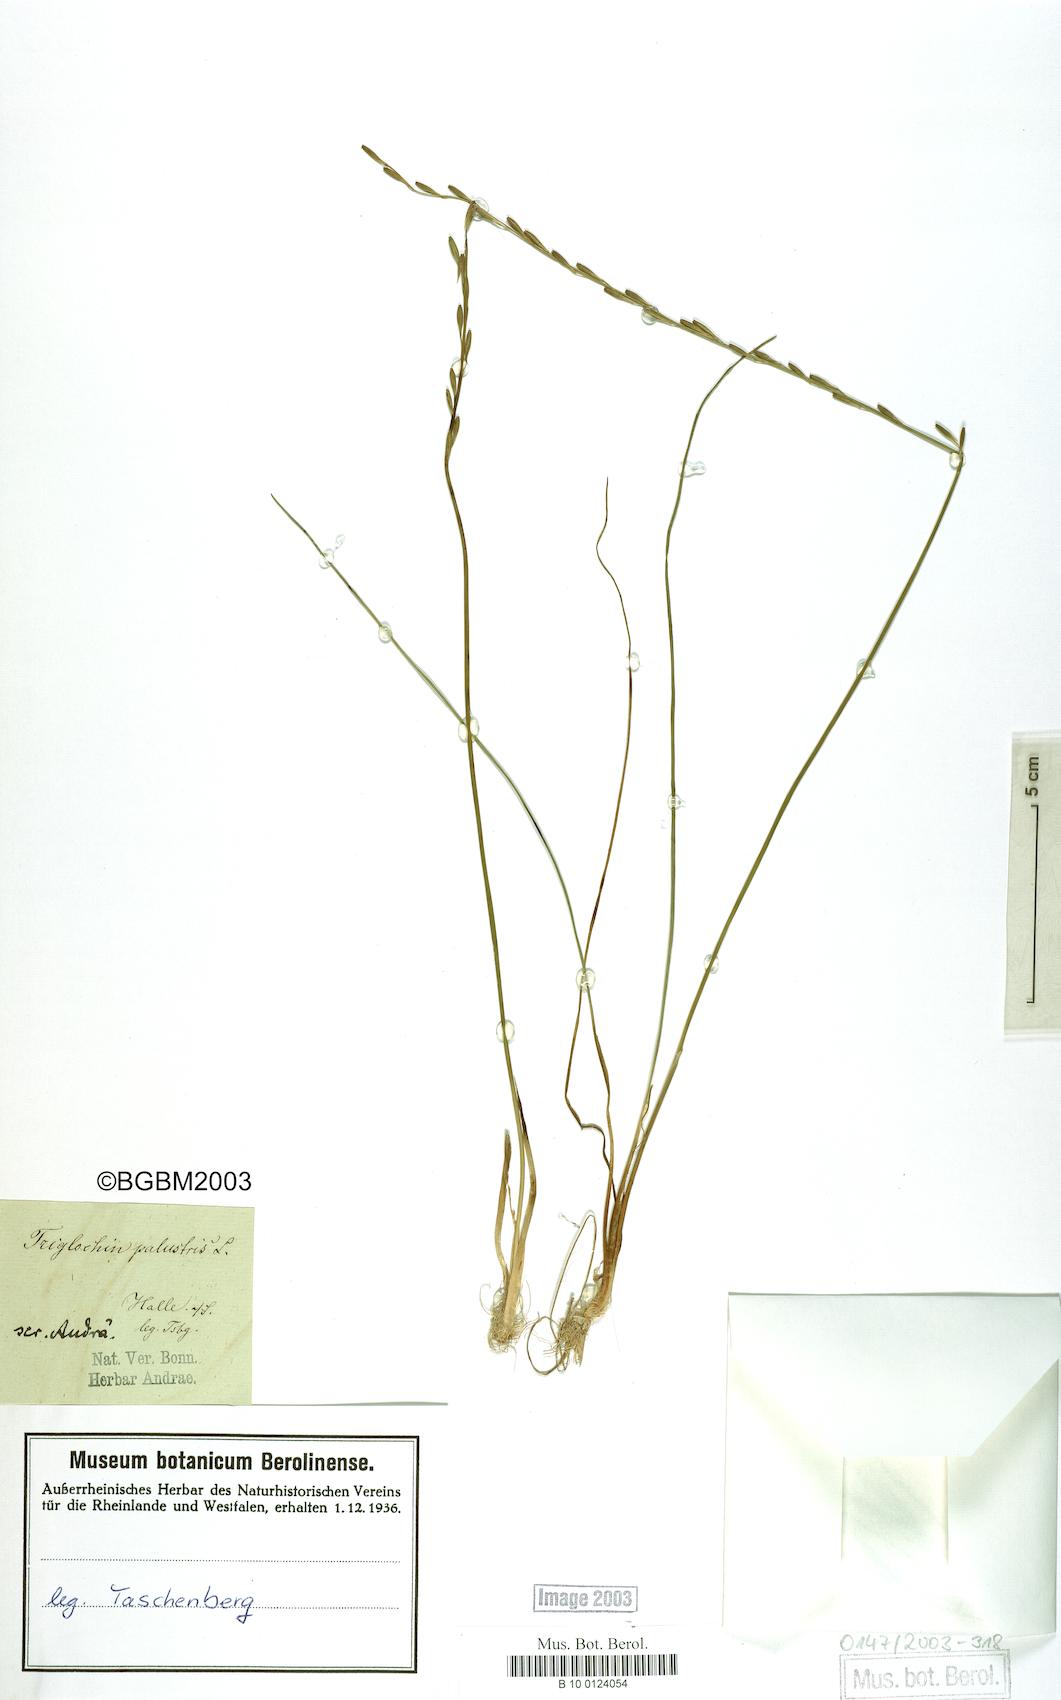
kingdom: Plantae
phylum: Tracheophyta
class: Liliopsida
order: Alismatales
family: Juncaginaceae
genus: Triglochin
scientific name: Triglochin palustris
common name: Marsh arrowgrass
